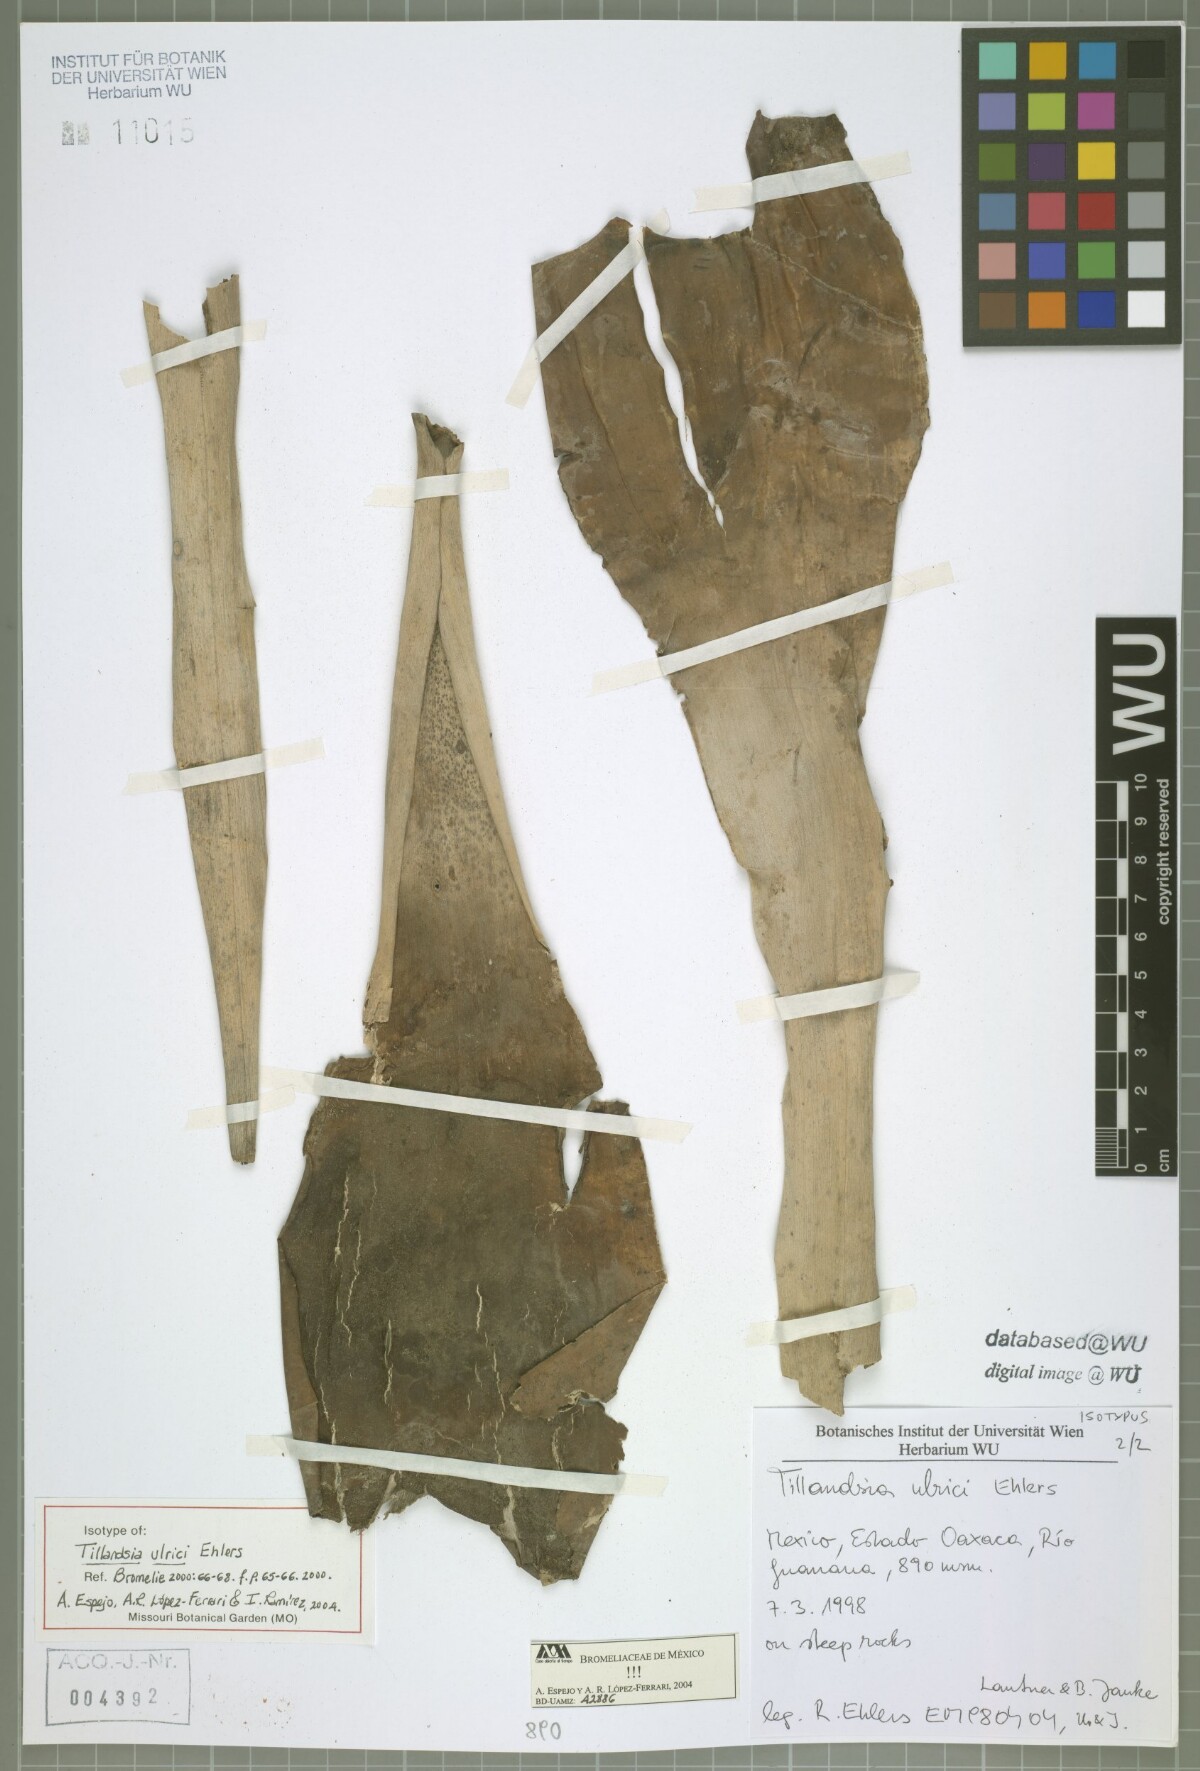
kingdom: Plantae
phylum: Tracheophyta
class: Liliopsida
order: Poales
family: Bromeliaceae
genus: Tillandsia
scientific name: Tillandsia ulrici
